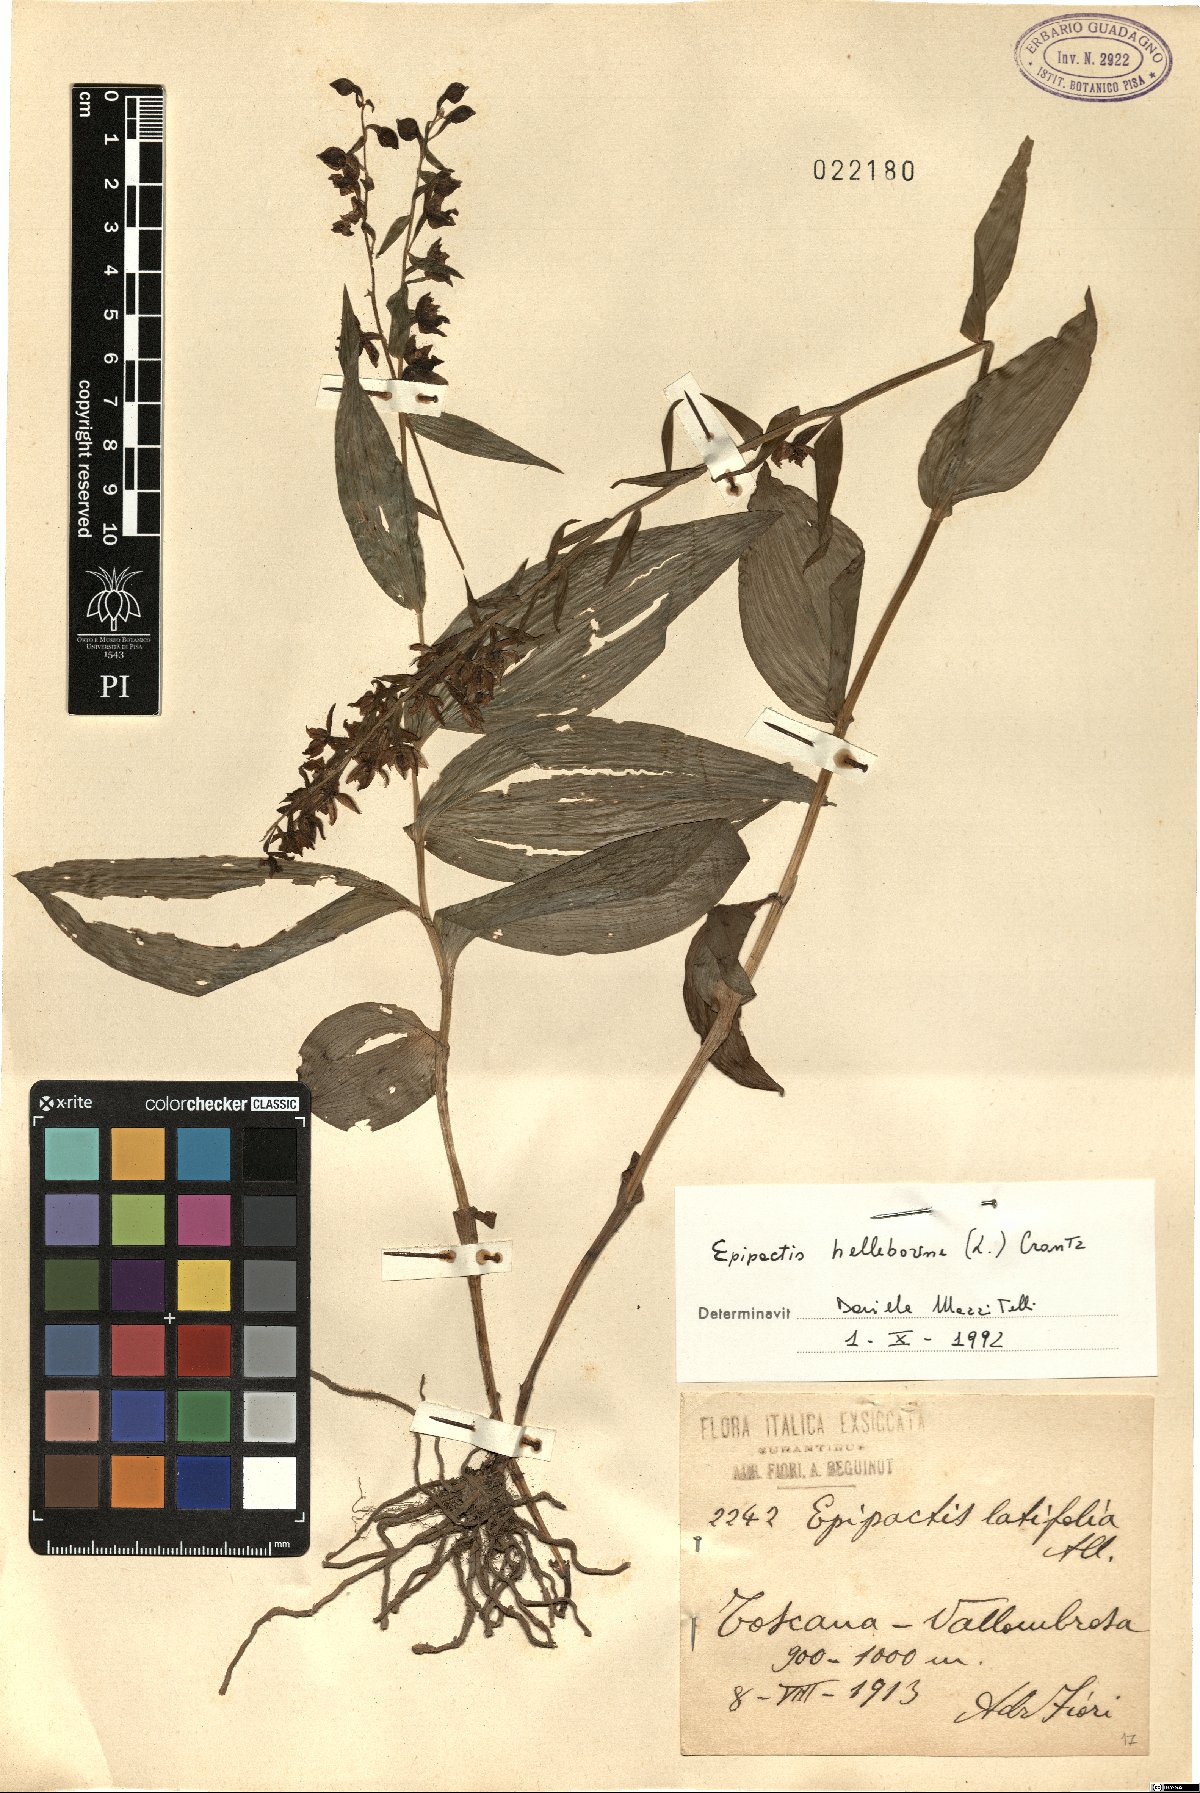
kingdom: Plantae
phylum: Tracheophyta
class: Liliopsida
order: Asparagales
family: Orchidaceae
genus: Epipactis
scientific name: Epipactis helleborine
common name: Broad-leaved helleborine
